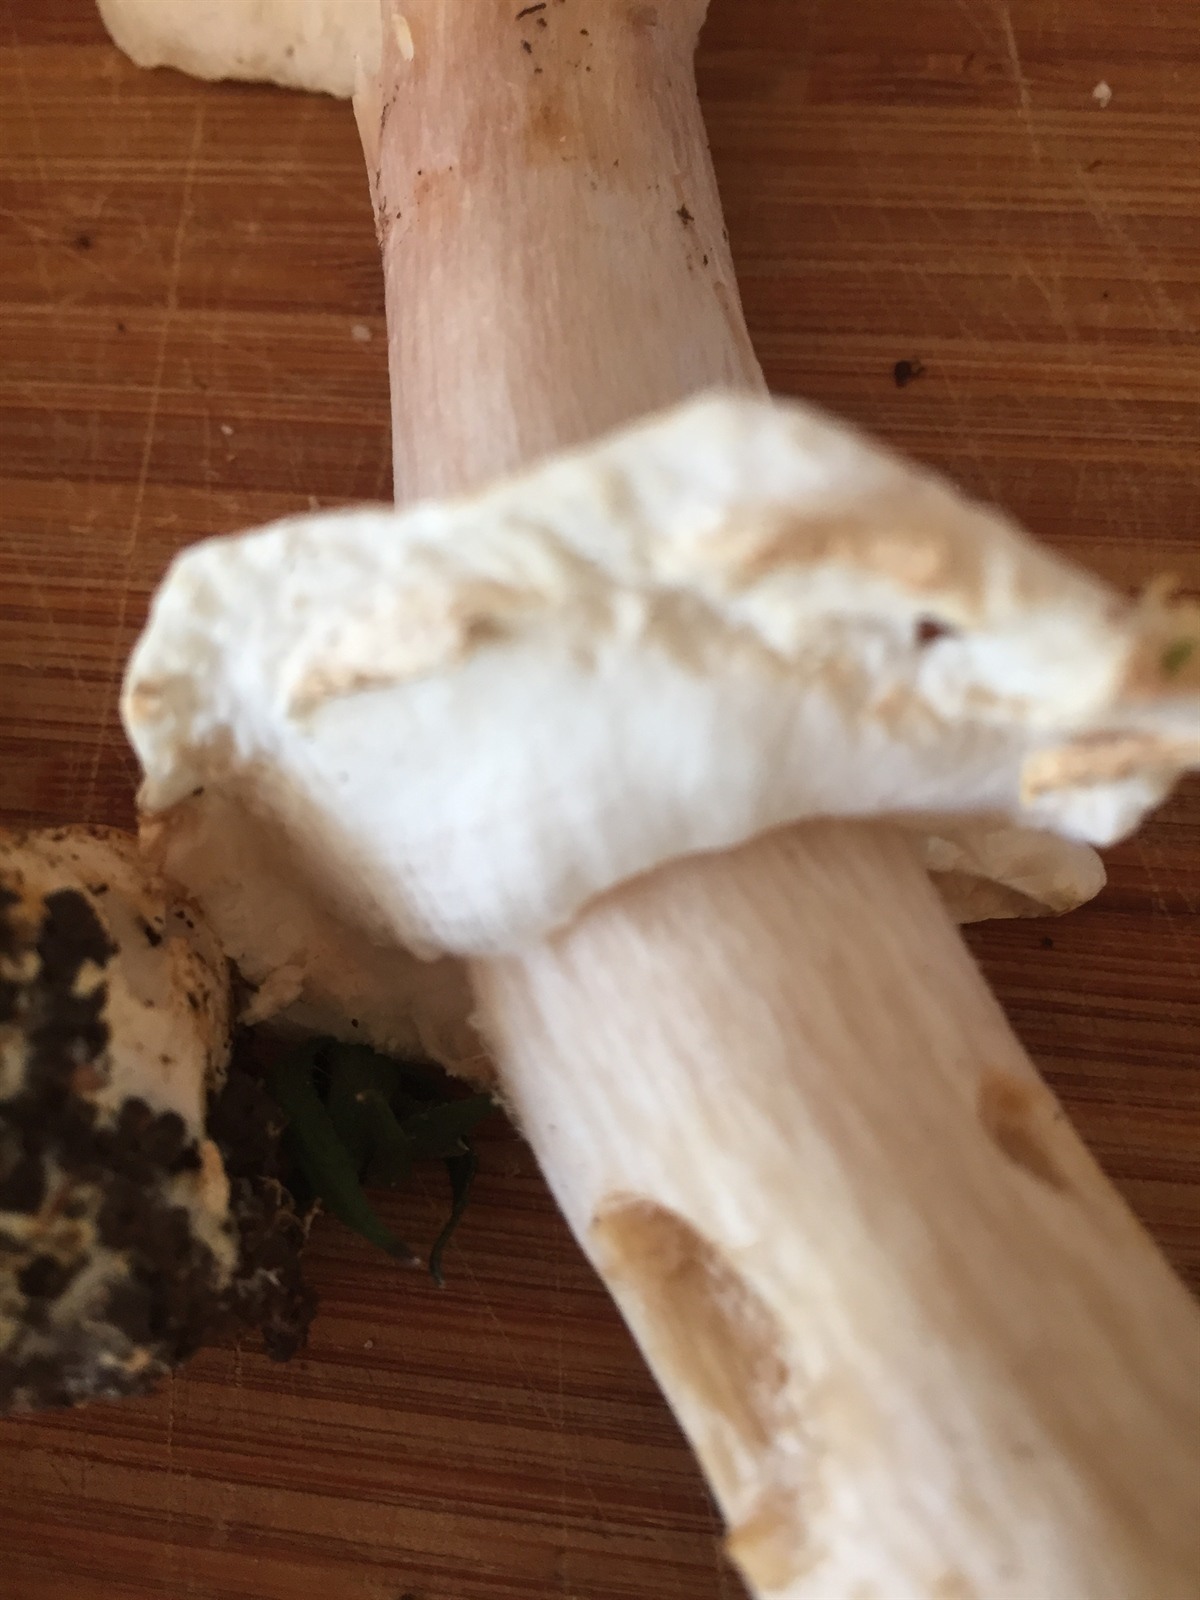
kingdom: Fungi
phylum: Basidiomycota
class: Agaricomycetes
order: Agaricales
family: Agaricaceae
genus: Agaricus
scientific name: Agaricus gemellatus
